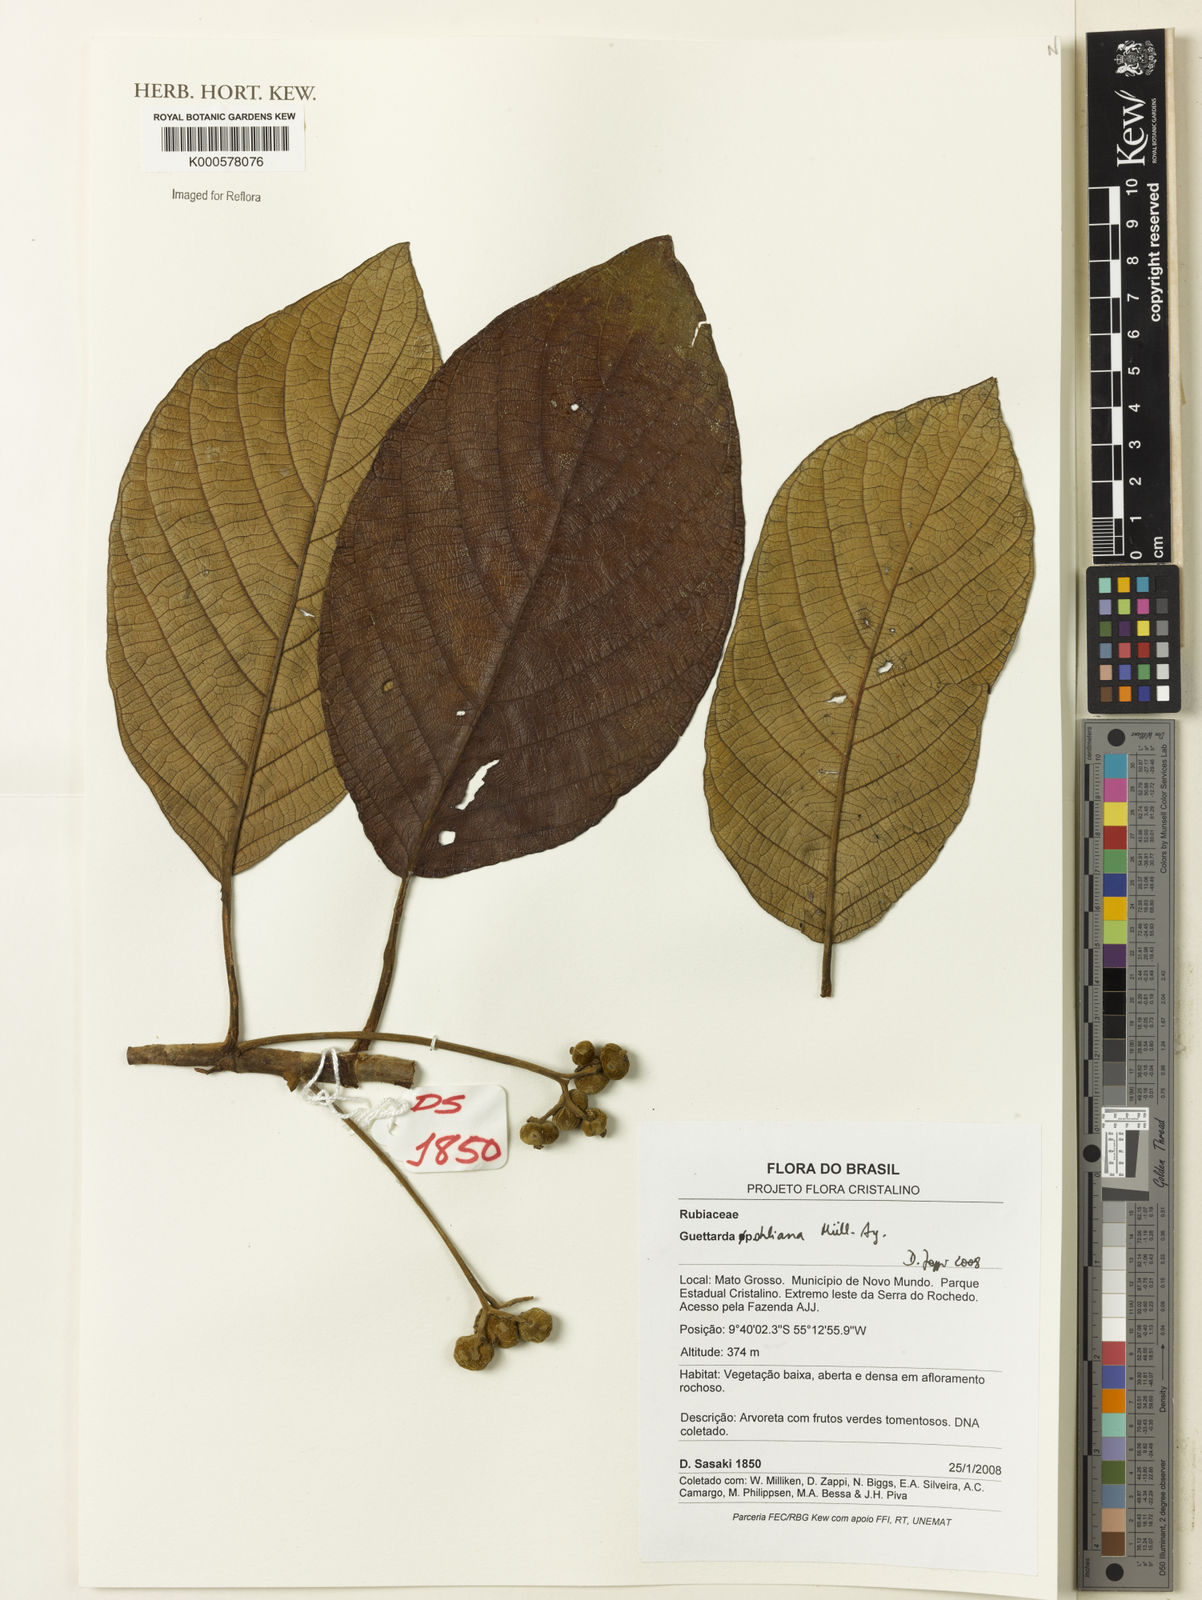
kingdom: Plantae
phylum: Tracheophyta
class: Magnoliopsida
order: Gentianales
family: Rubiaceae
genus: Guettarda
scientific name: Guettarda
